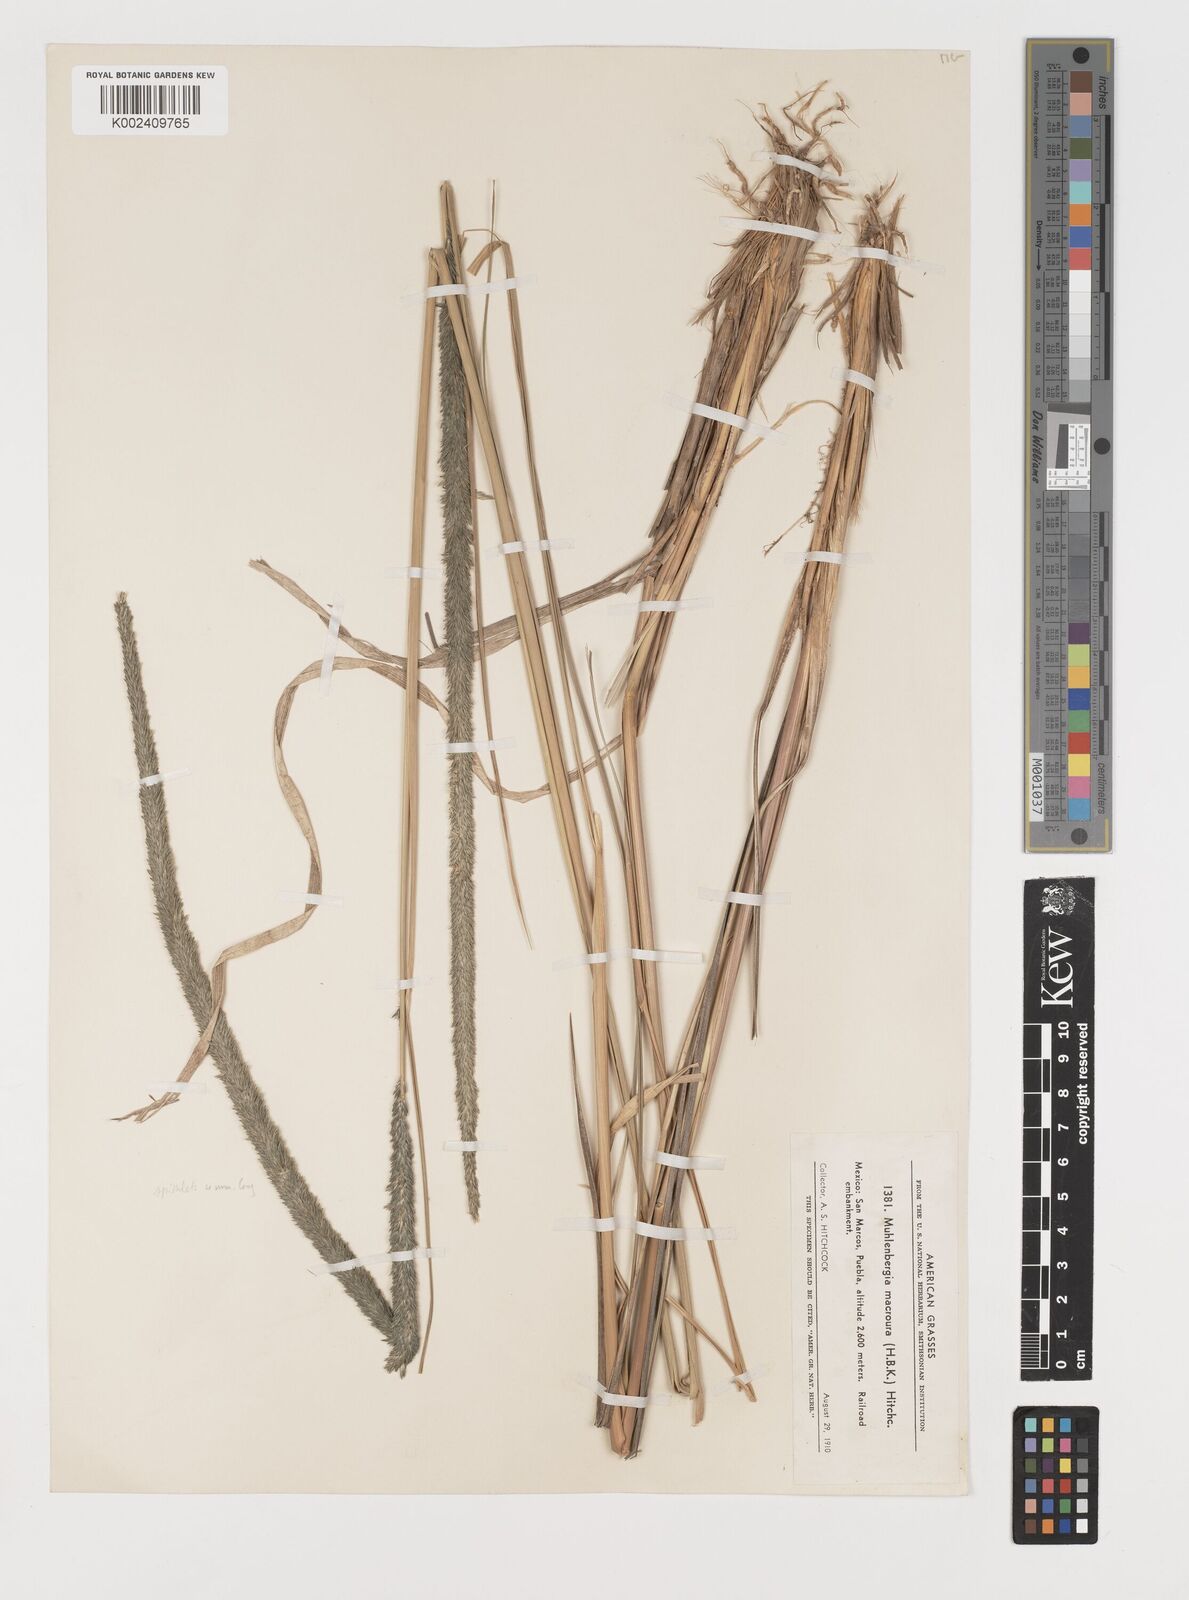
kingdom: Plantae
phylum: Tracheophyta
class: Liliopsida
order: Poales
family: Poaceae
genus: Muhlenbergia
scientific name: Muhlenbergia macroura
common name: Mexican broomroot
